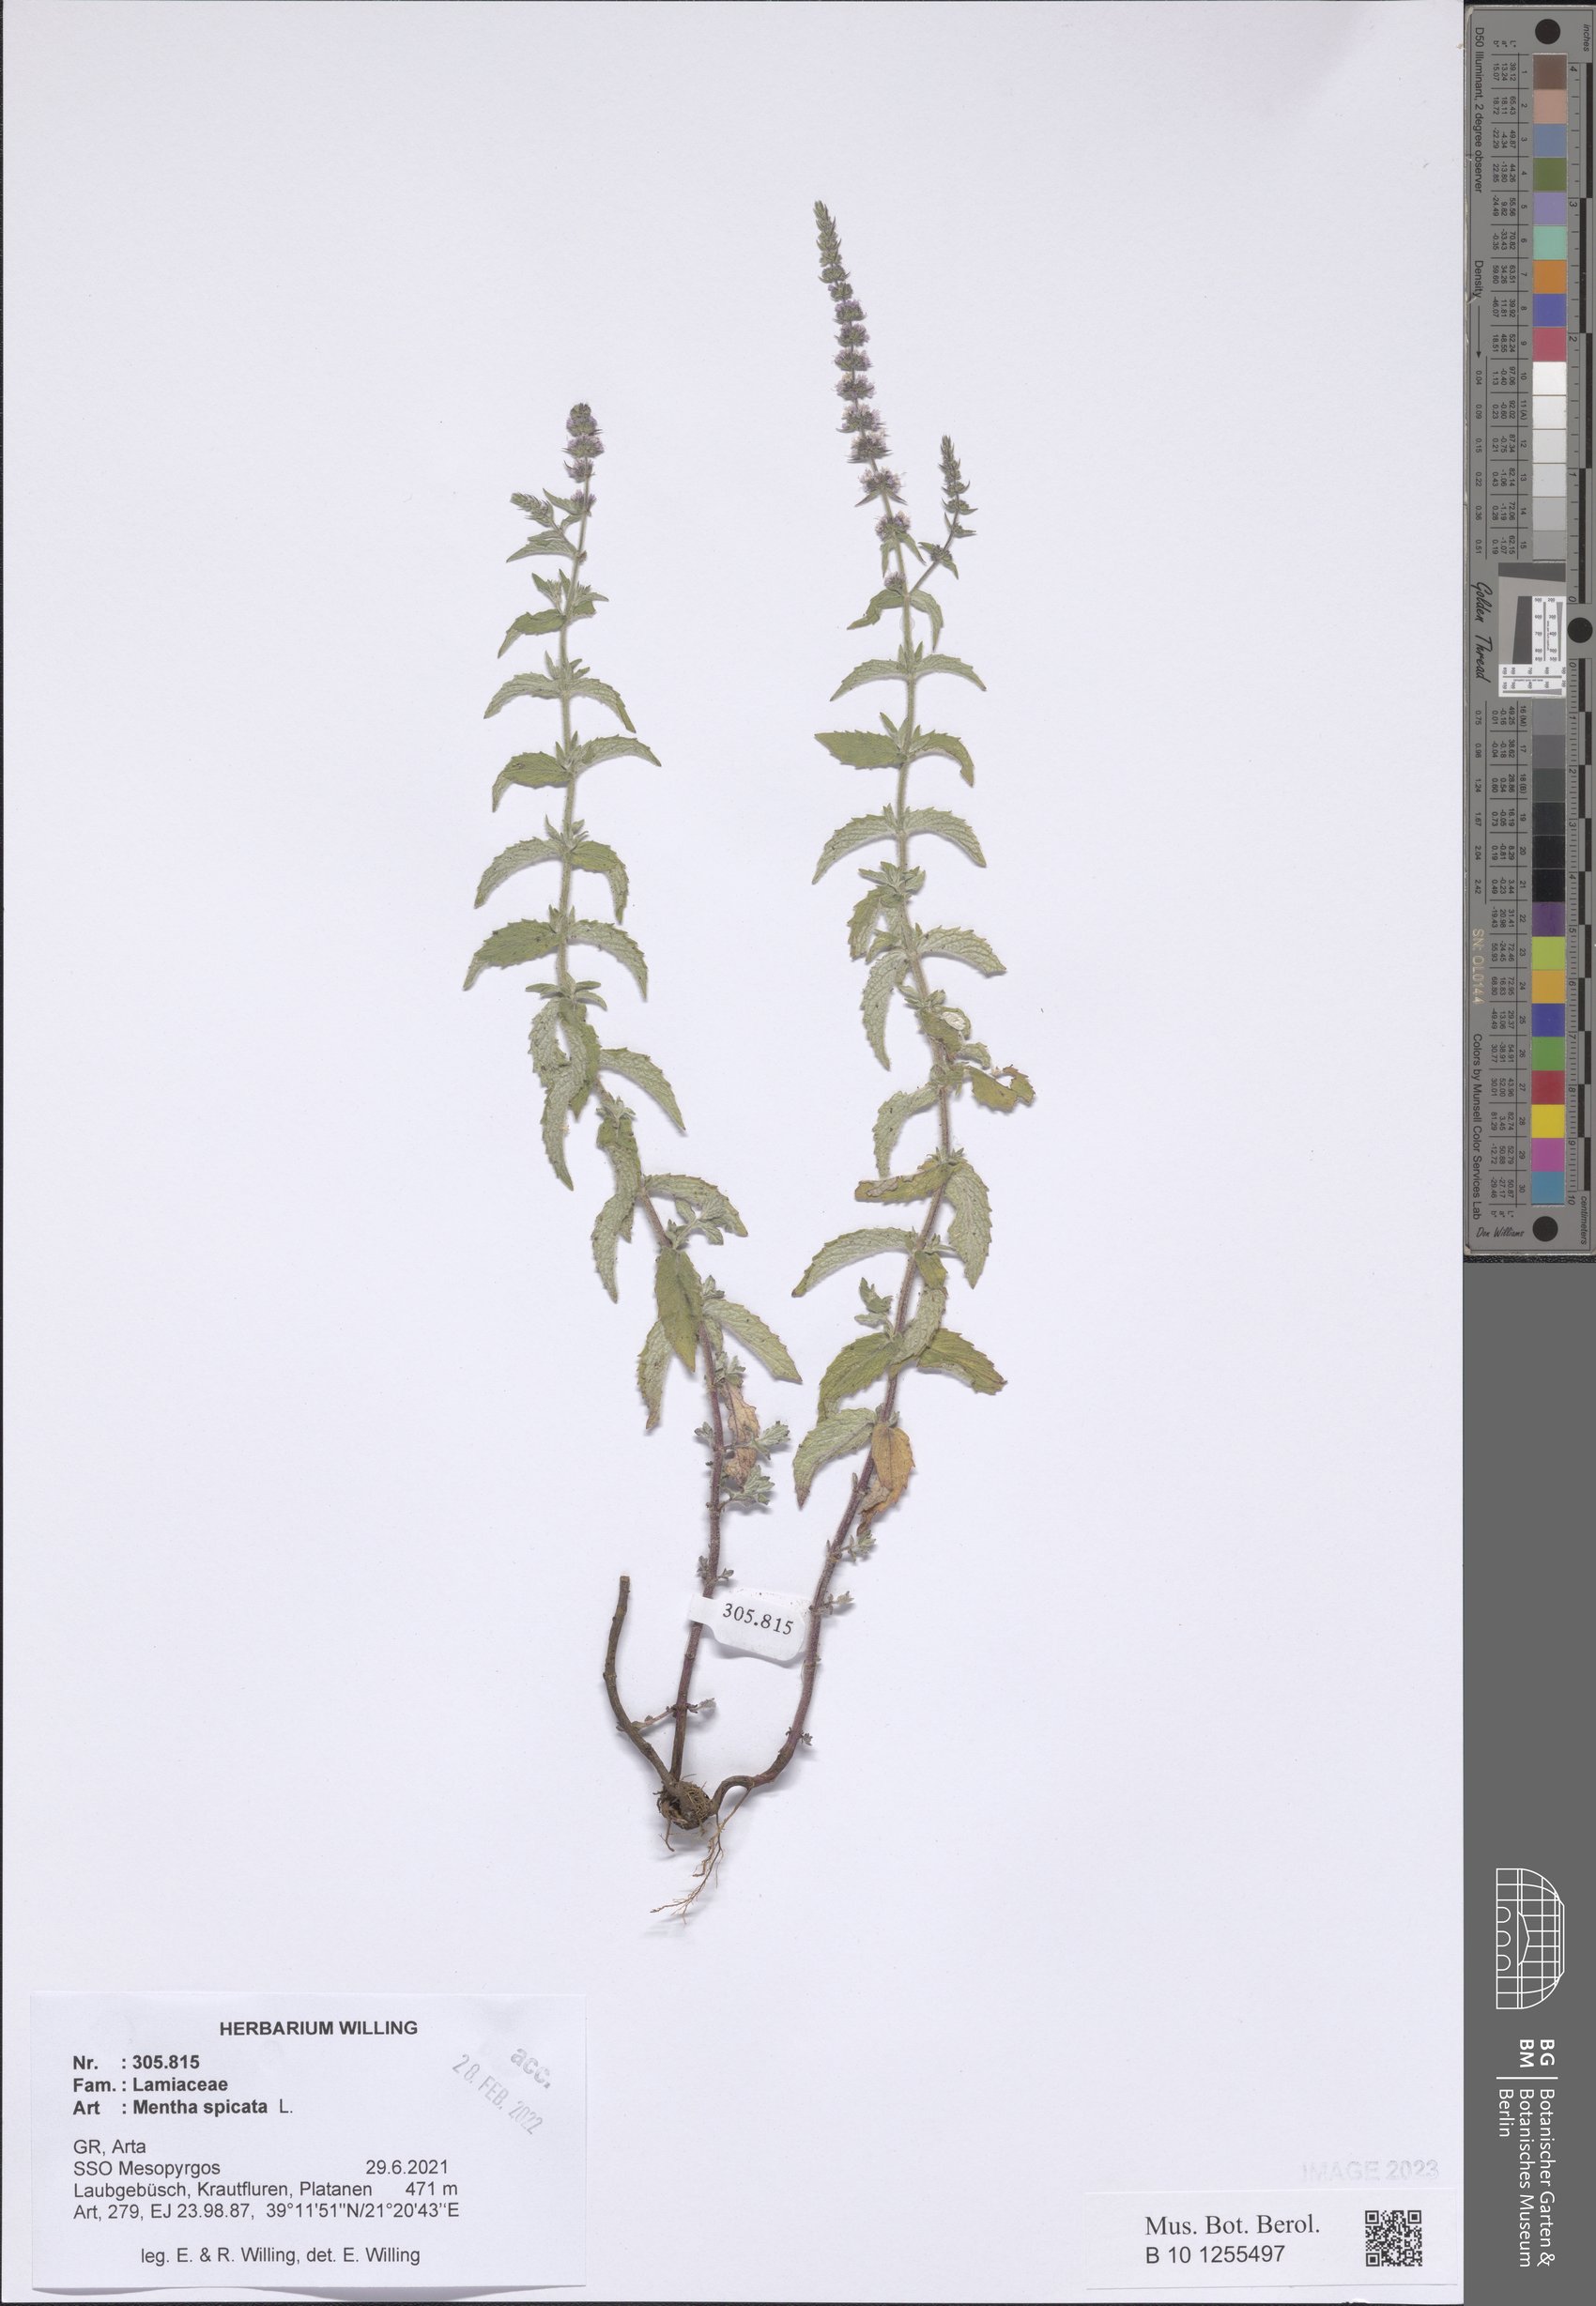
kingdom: Plantae
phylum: Tracheophyta
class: Magnoliopsida
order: Lamiales
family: Lamiaceae
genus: Mentha
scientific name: Mentha spicata
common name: Spearmint
